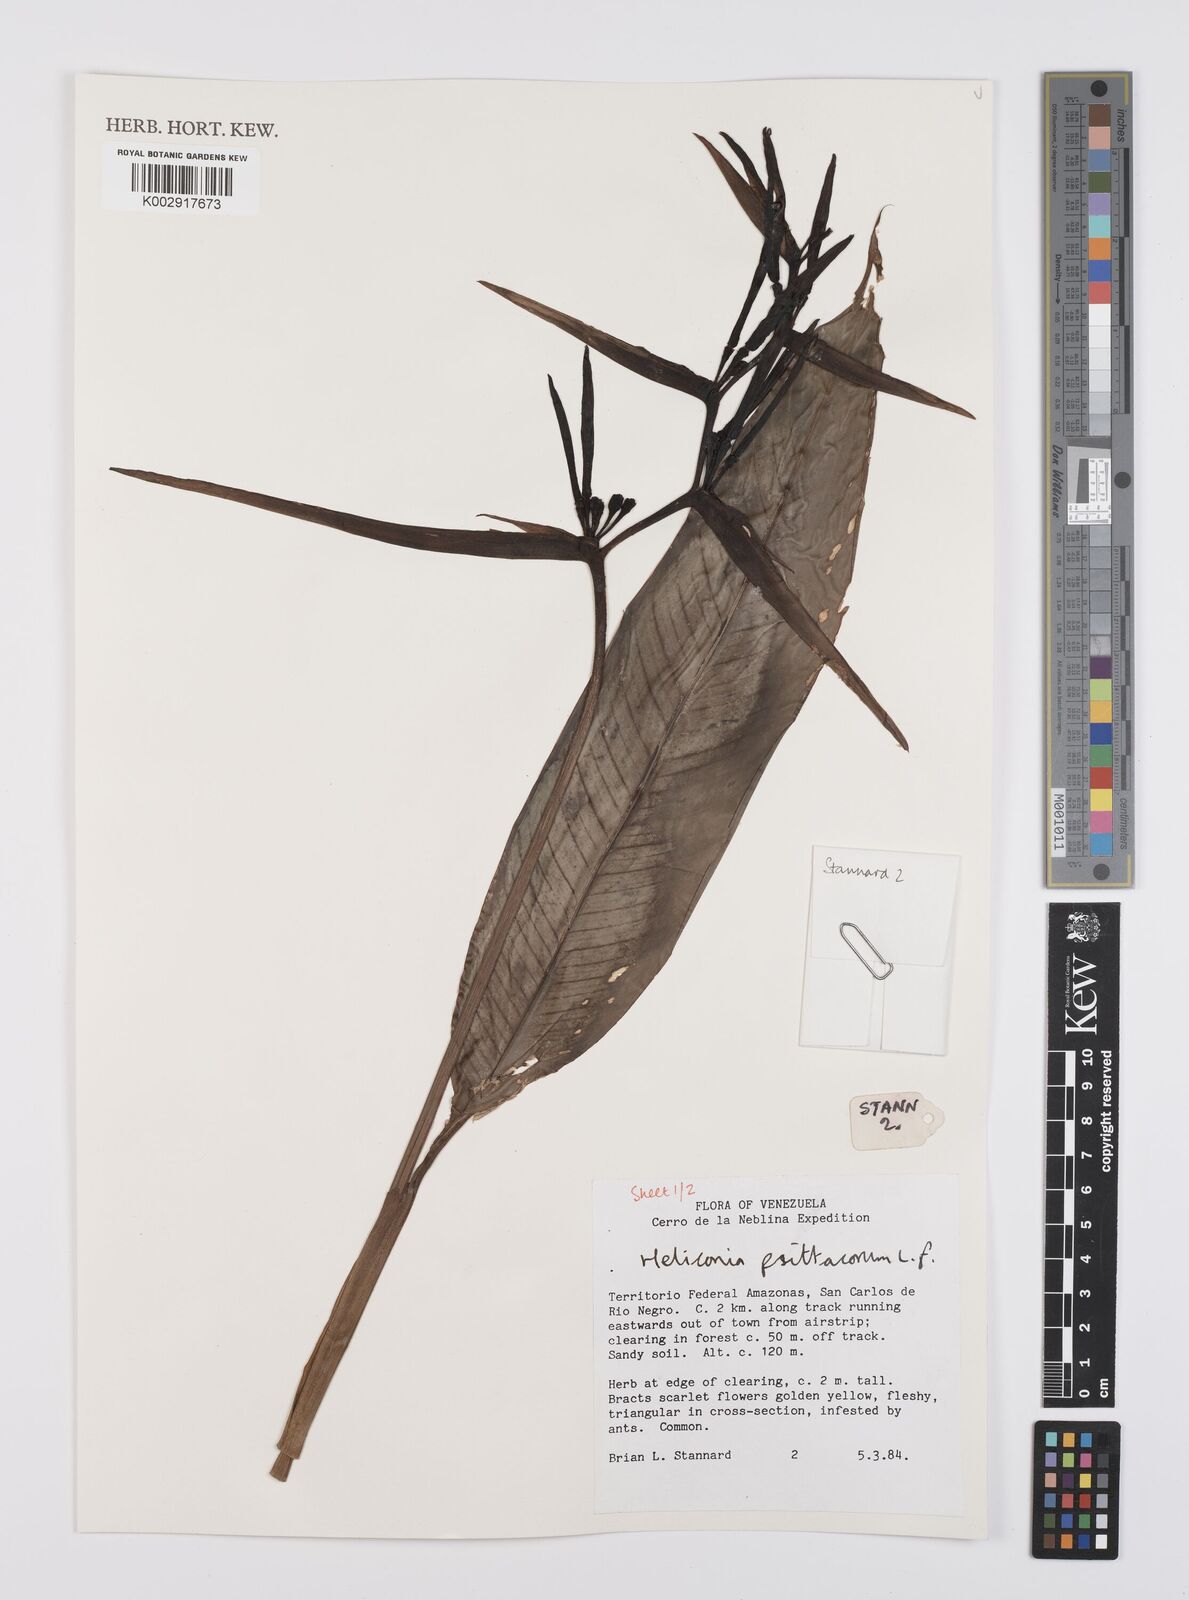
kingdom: Plantae
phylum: Tracheophyta
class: Liliopsida
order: Zingiberales
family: Heliconiaceae
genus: Heliconia
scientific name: Heliconia psittacorum
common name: Parrot's-flower
